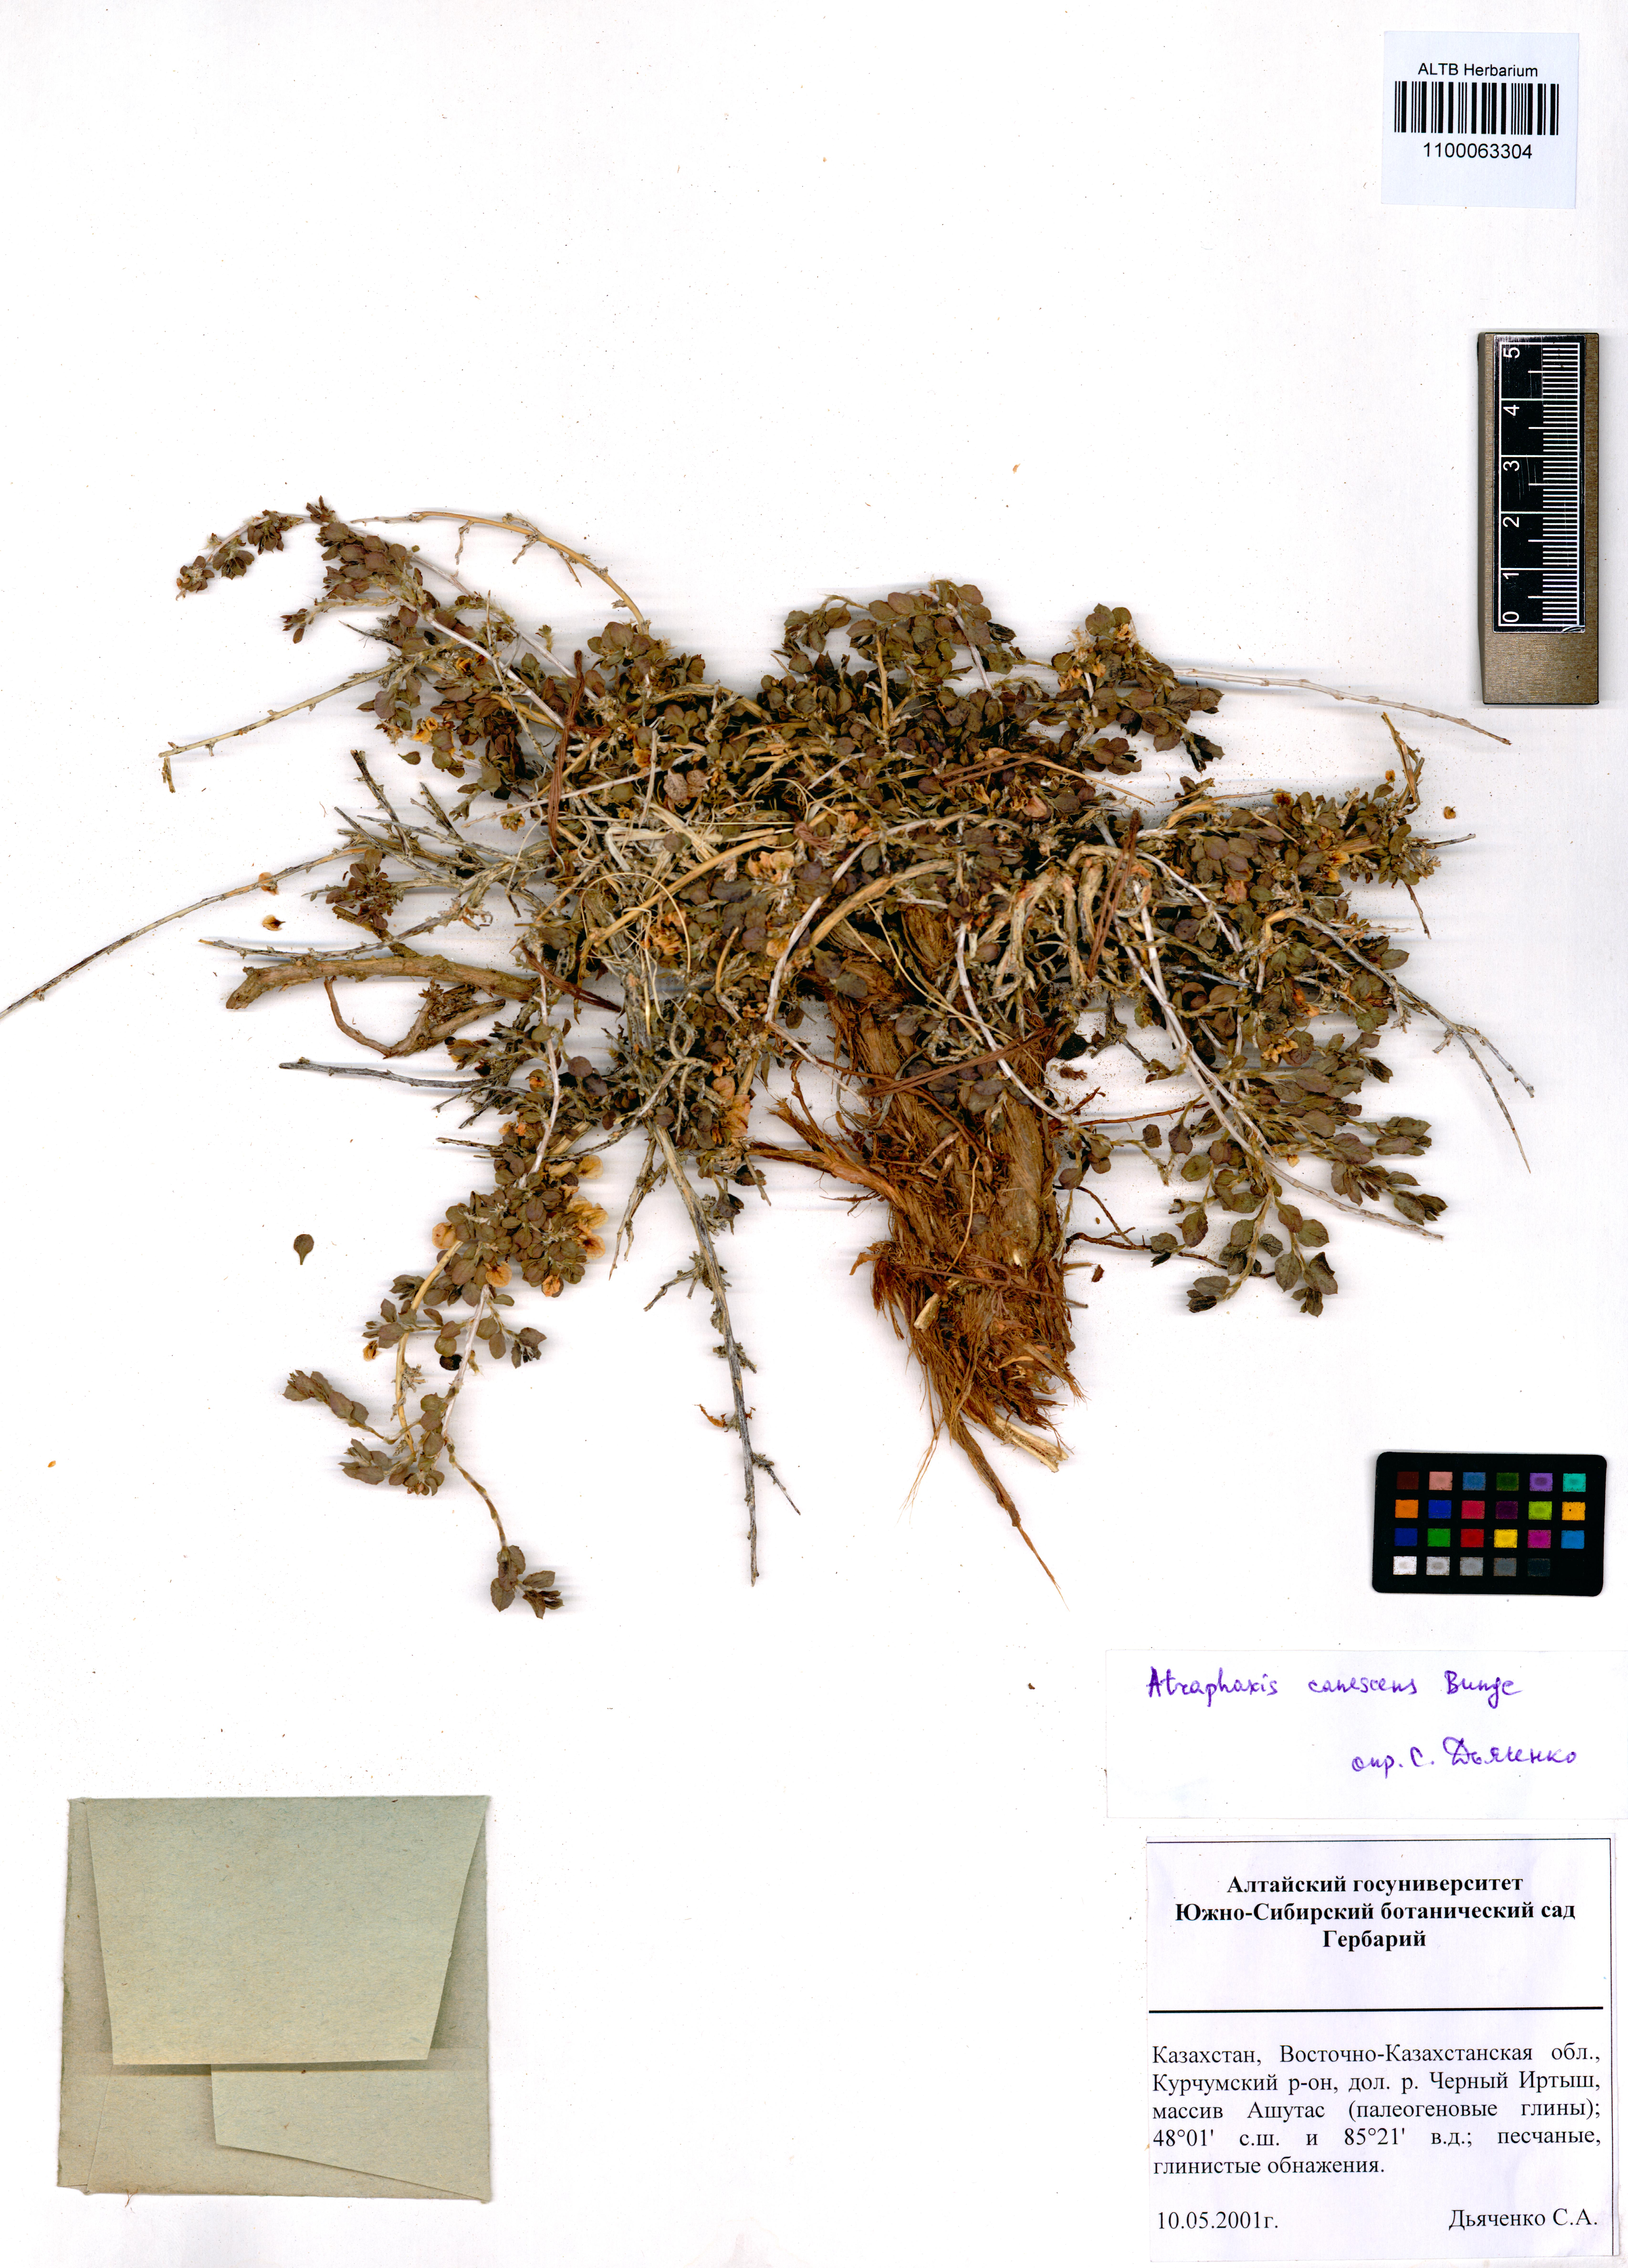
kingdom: Plantae
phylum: Tracheophyta
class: Magnoliopsida
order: Caryophyllales
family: Polygonaceae
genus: Atraphaxis
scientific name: Atraphaxis canescens
